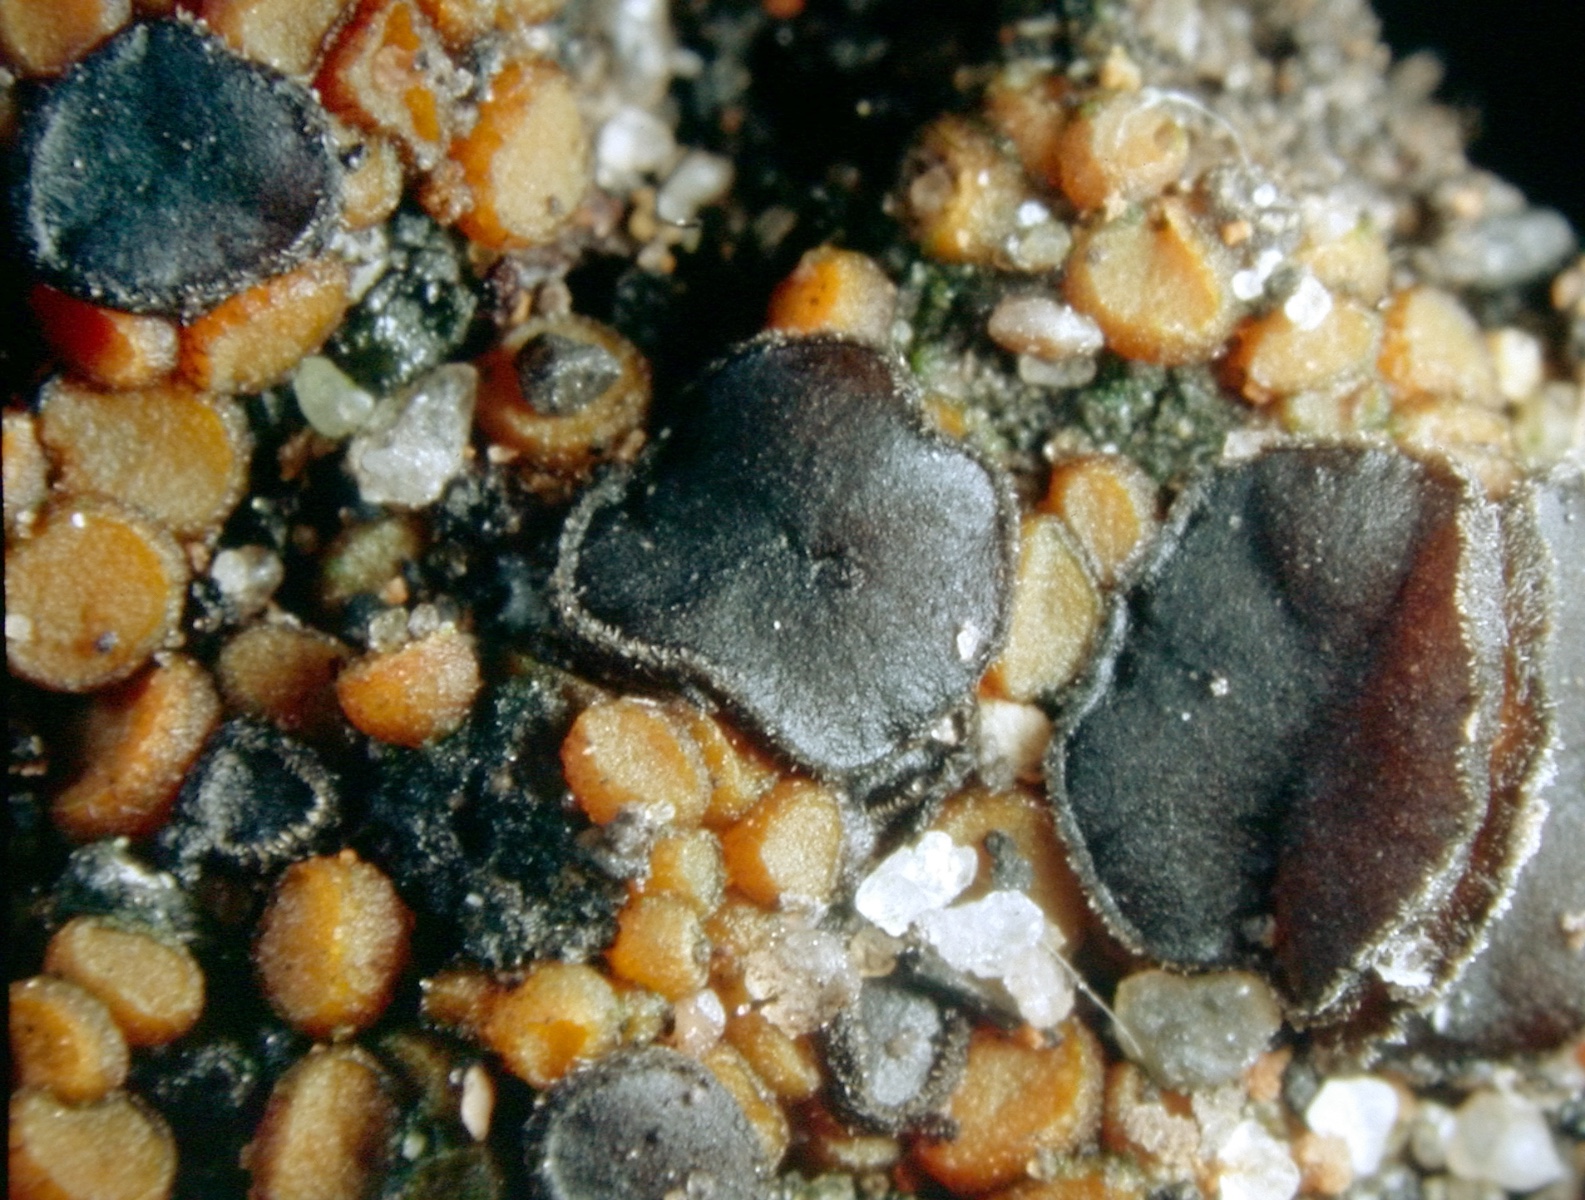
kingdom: Fungi
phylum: Ascomycota
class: Pezizomycetes
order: Pezizales
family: Pyronemataceae
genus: Trichophaea
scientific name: Trichophaea abundans
